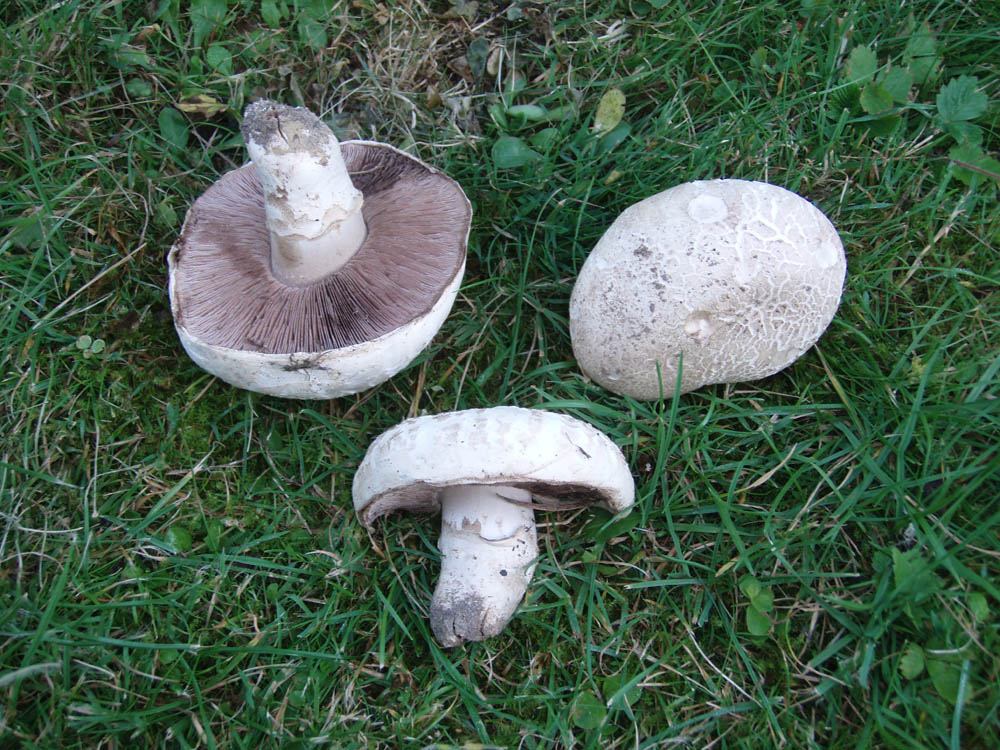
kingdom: Fungi
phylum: Basidiomycota
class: Agaricomycetes
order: Agaricales
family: Agaricaceae
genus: Agaricus
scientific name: Agaricus bernardii
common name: strandengs-champignon
